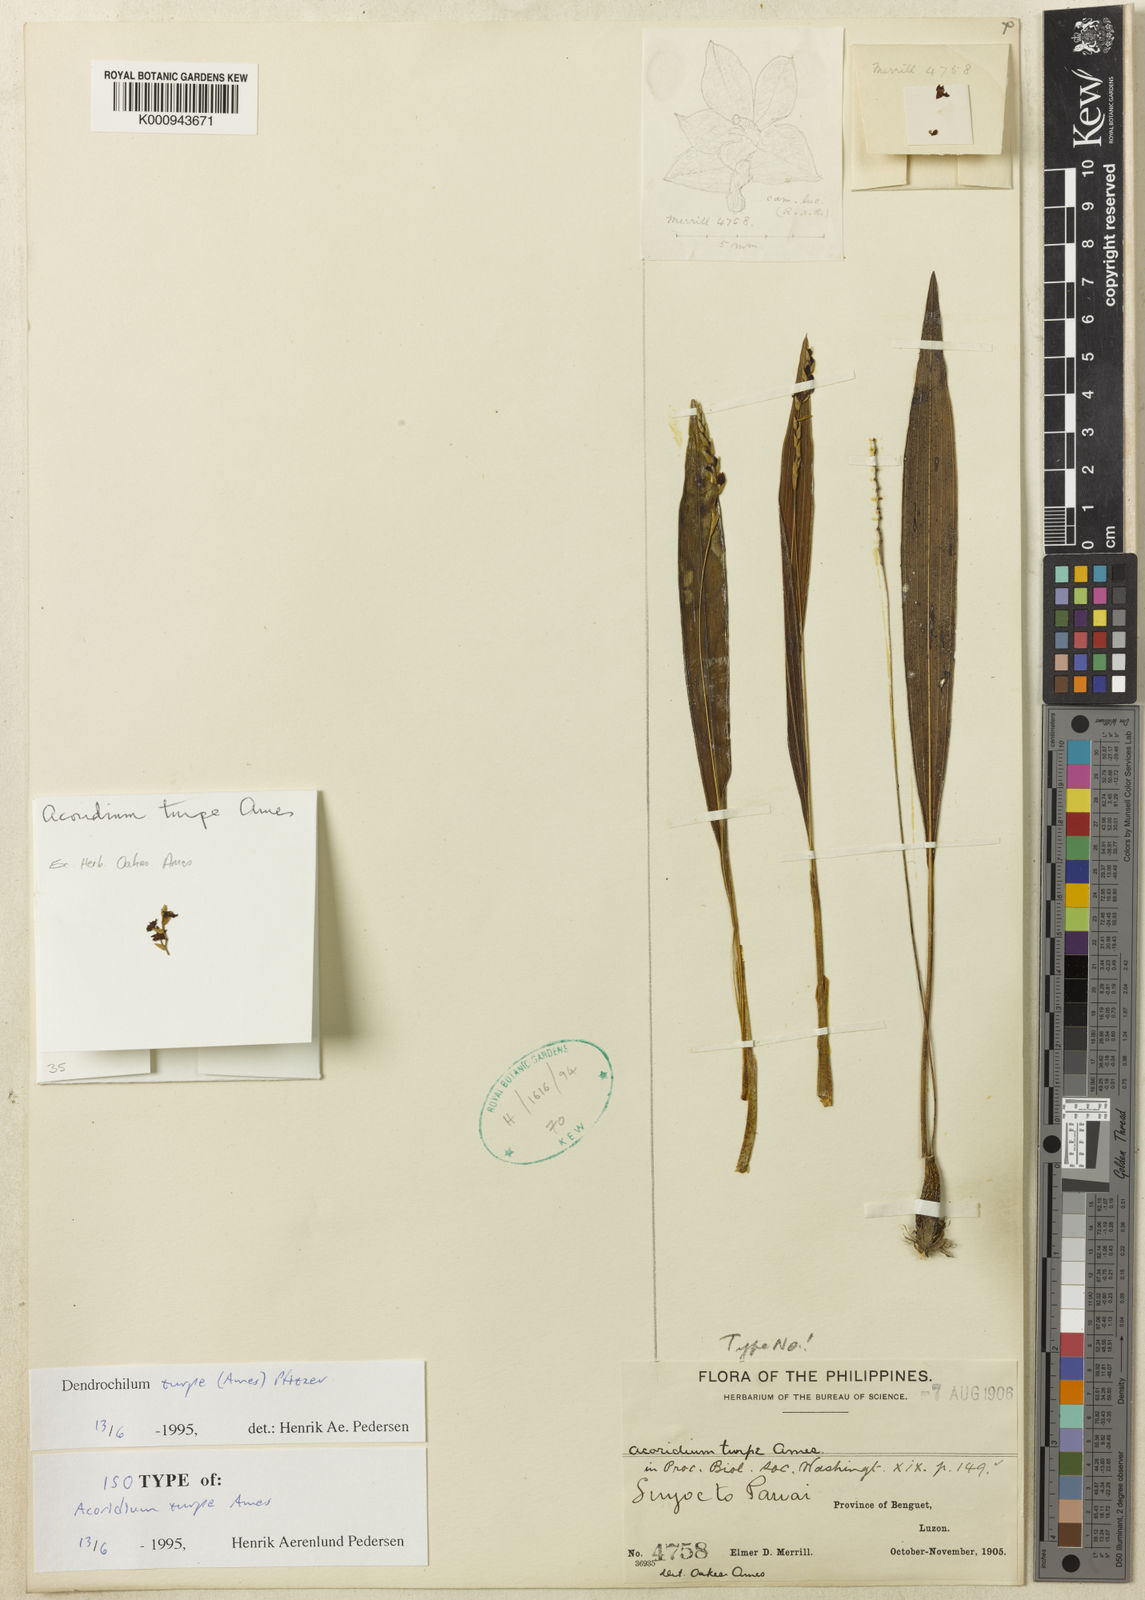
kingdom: Plantae
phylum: Tracheophyta
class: Liliopsida
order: Asparagales
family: Orchidaceae
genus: Coelogyne
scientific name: Coelogyne turpis
